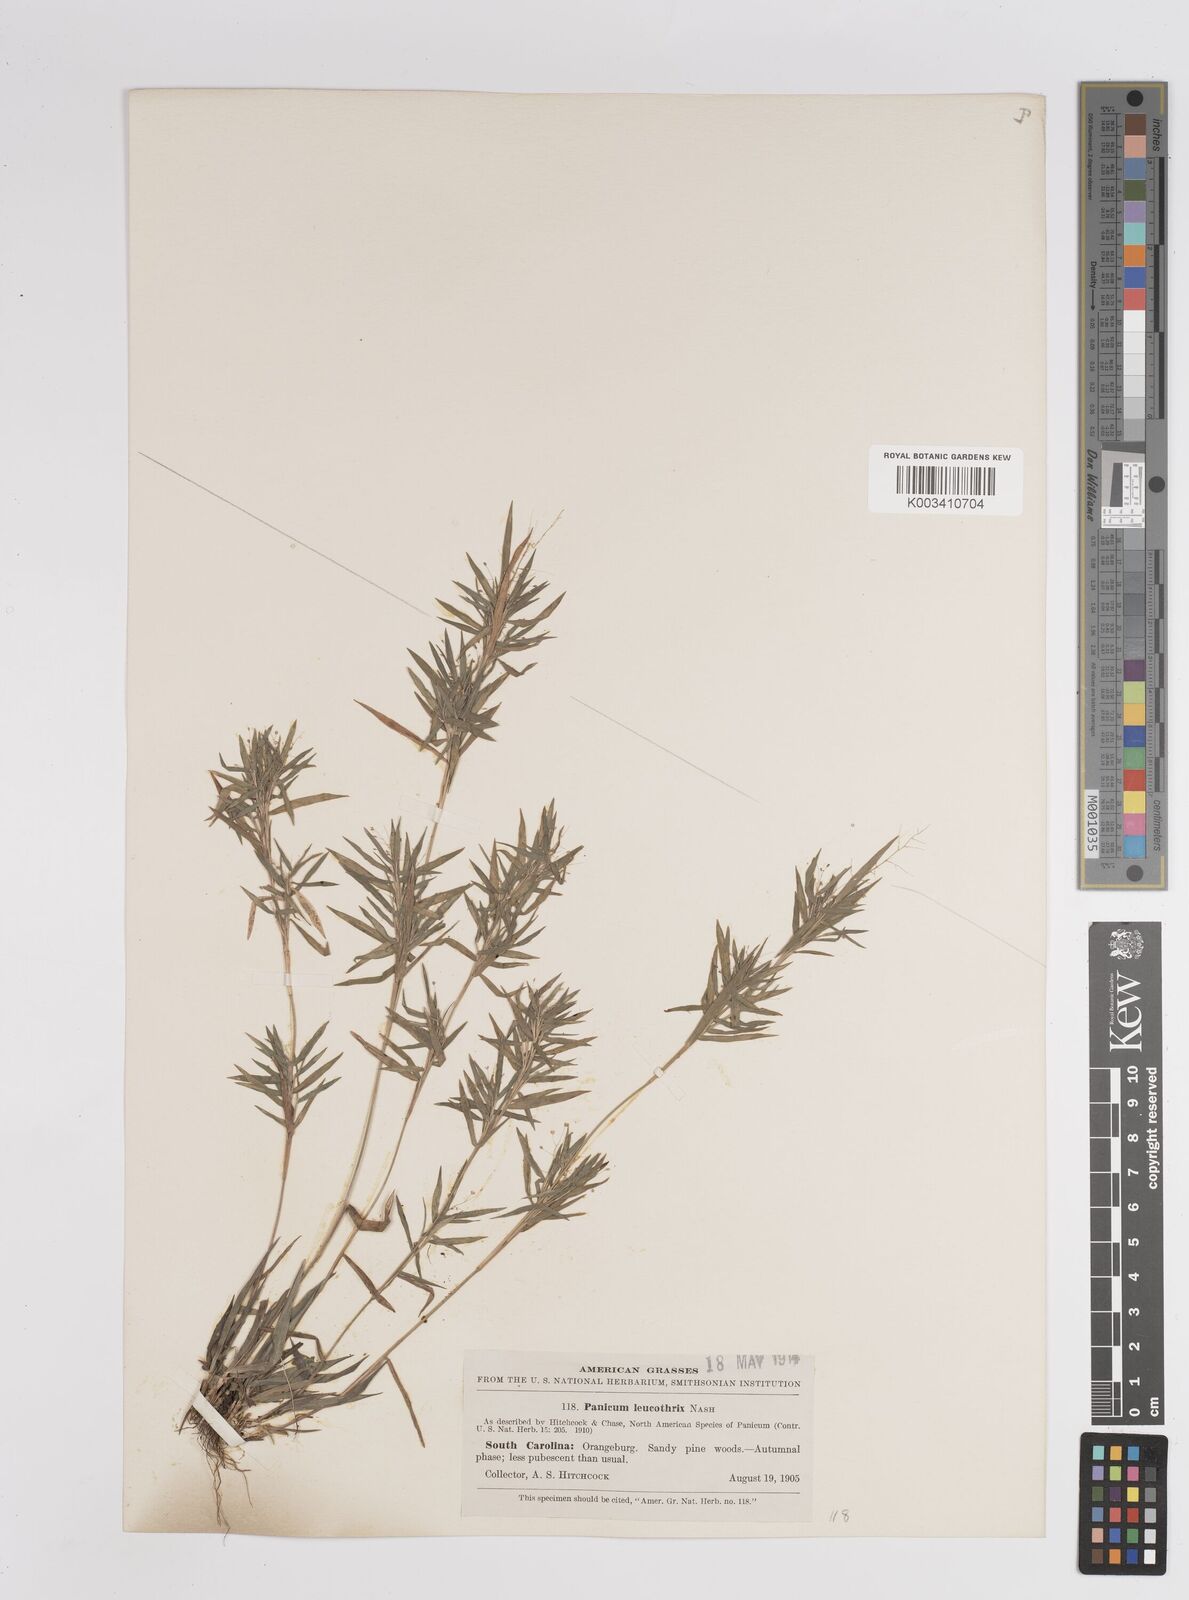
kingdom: Plantae
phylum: Tracheophyta
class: Liliopsida
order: Poales
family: Poaceae
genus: Dichanthelium
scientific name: Dichanthelium leucothrix
